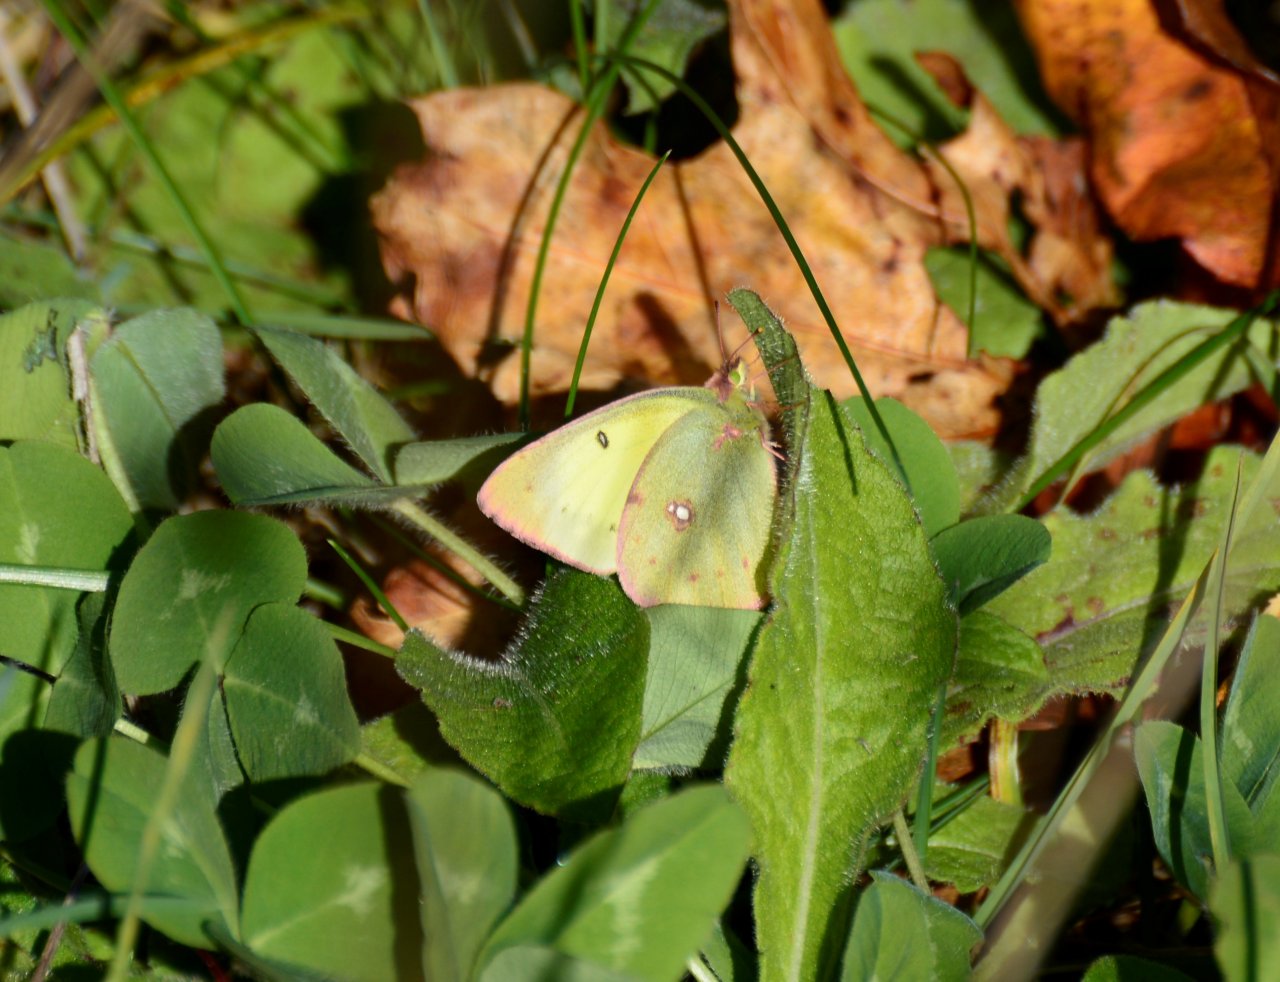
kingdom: Animalia
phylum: Arthropoda
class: Insecta
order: Lepidoptera
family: Pieridae
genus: Colias
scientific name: Colias philodice
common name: Clouded Sulphur
